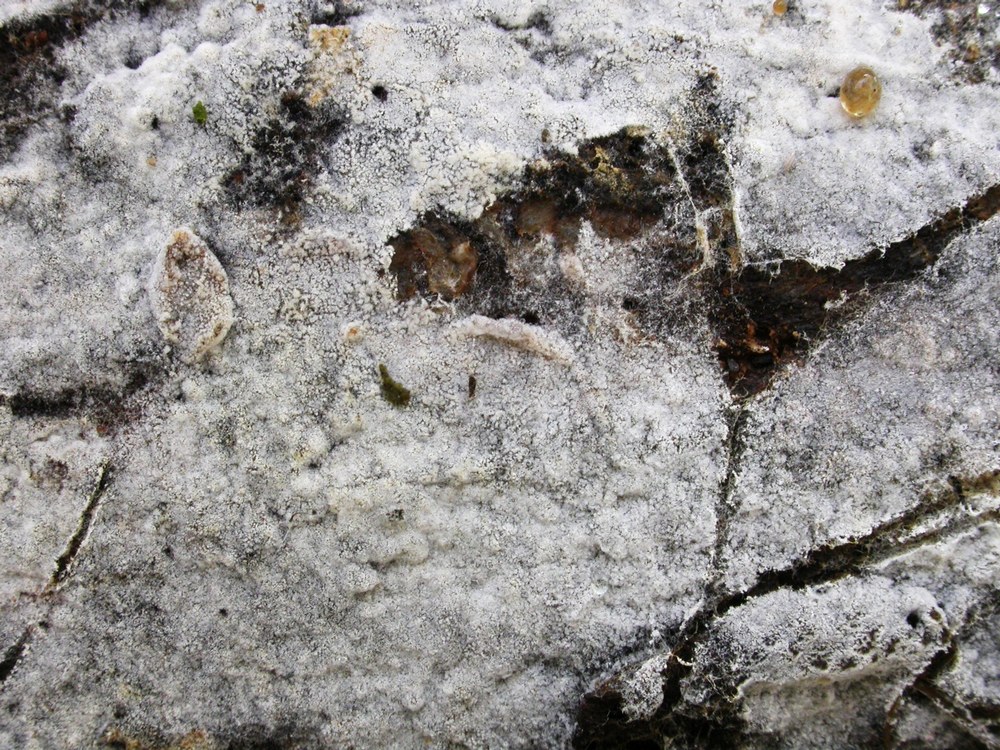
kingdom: Fungi
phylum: Basidiomycota
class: Agaricomycetes
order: Cantharellales
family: Botryobasidiaceae
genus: Botryobasidium
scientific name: Botryobasidium subcoronatum
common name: almindelig spindhinde
